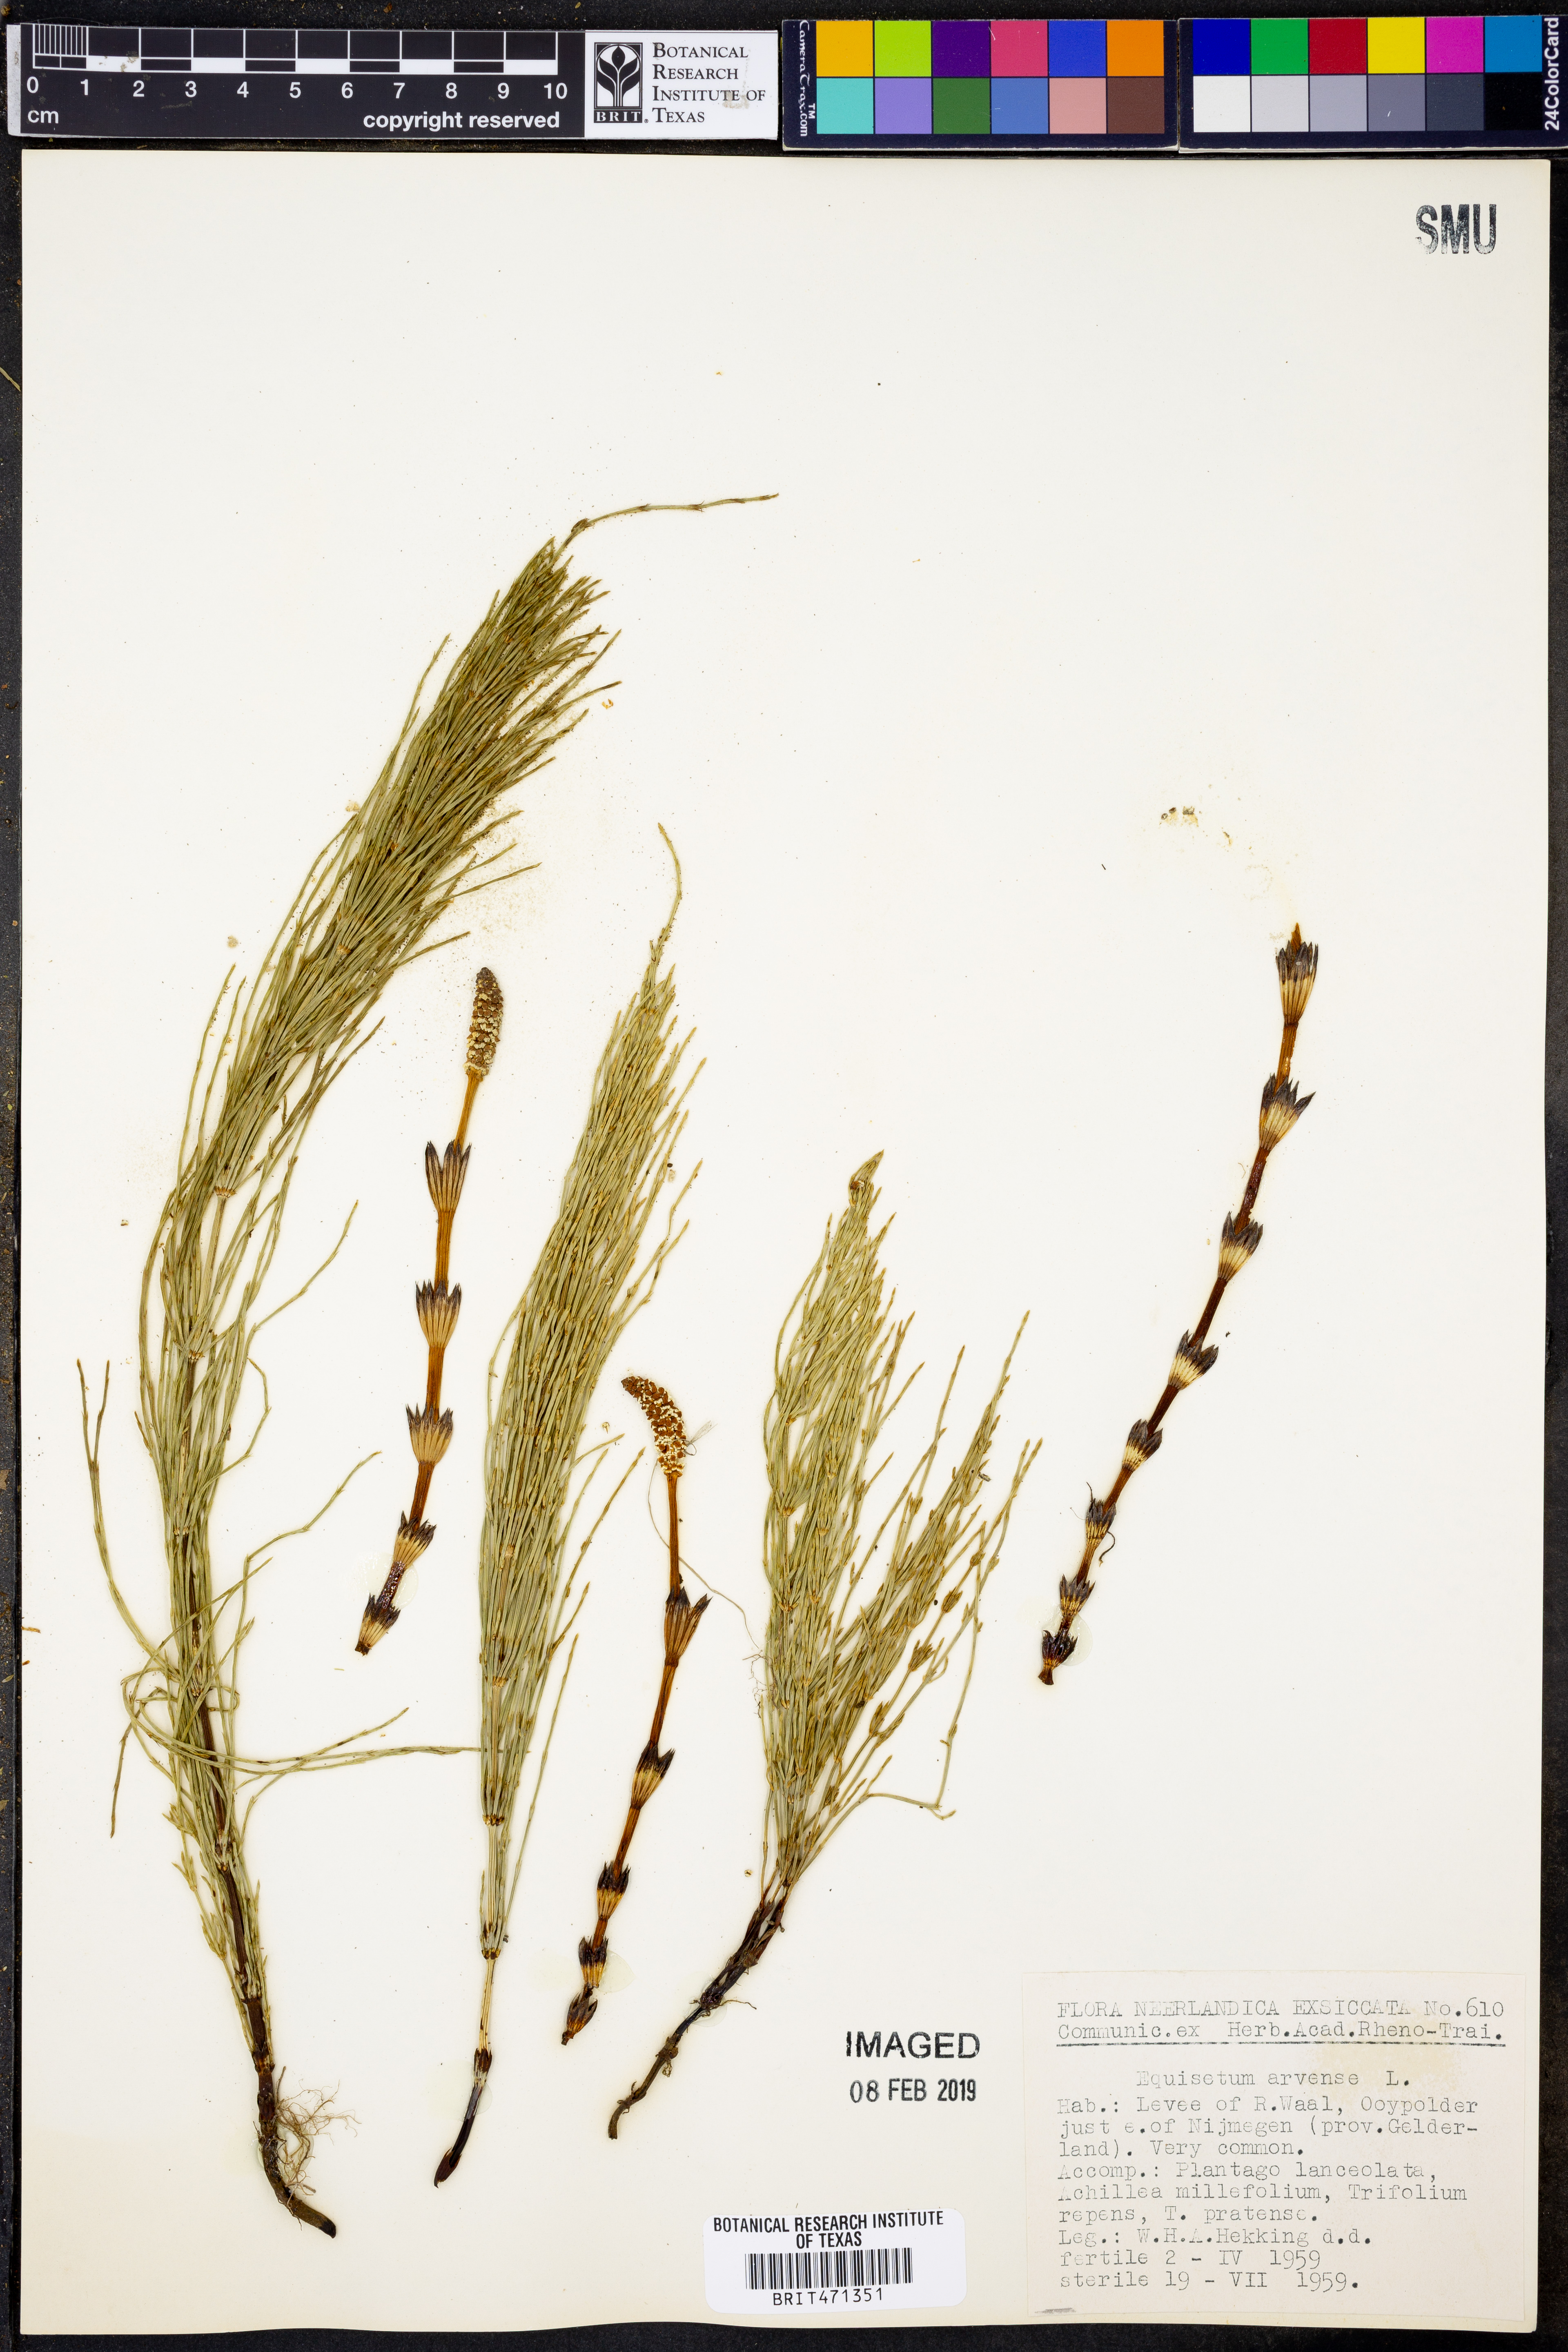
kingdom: Plantae
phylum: Tracheophyta
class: Polypodiopsida
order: Equisetales
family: Equisetaceae
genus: Equisetum
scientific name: Equisetum arvense
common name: Field horsetail
